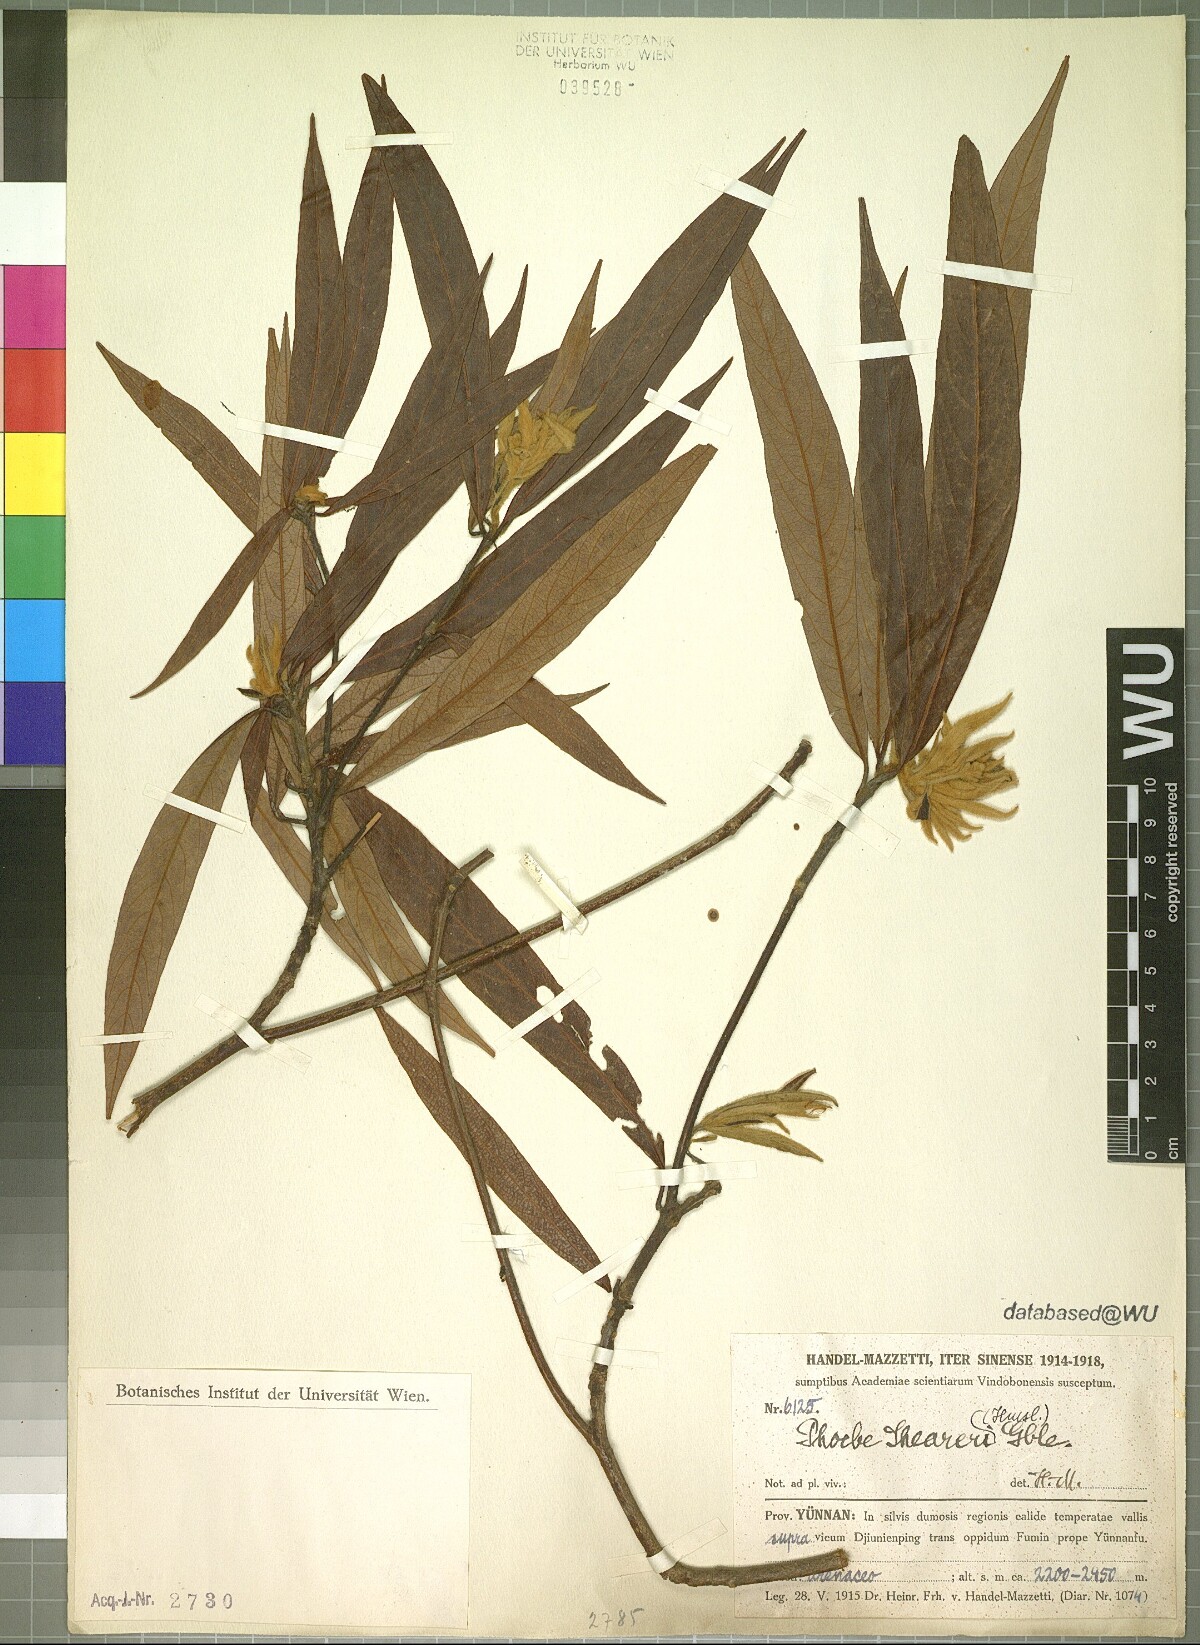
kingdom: Plantae
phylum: Tracheophyta
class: Magnoliopsida
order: Laurales
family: Lauraceae
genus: Phoebe
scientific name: Phoebe sheareri
